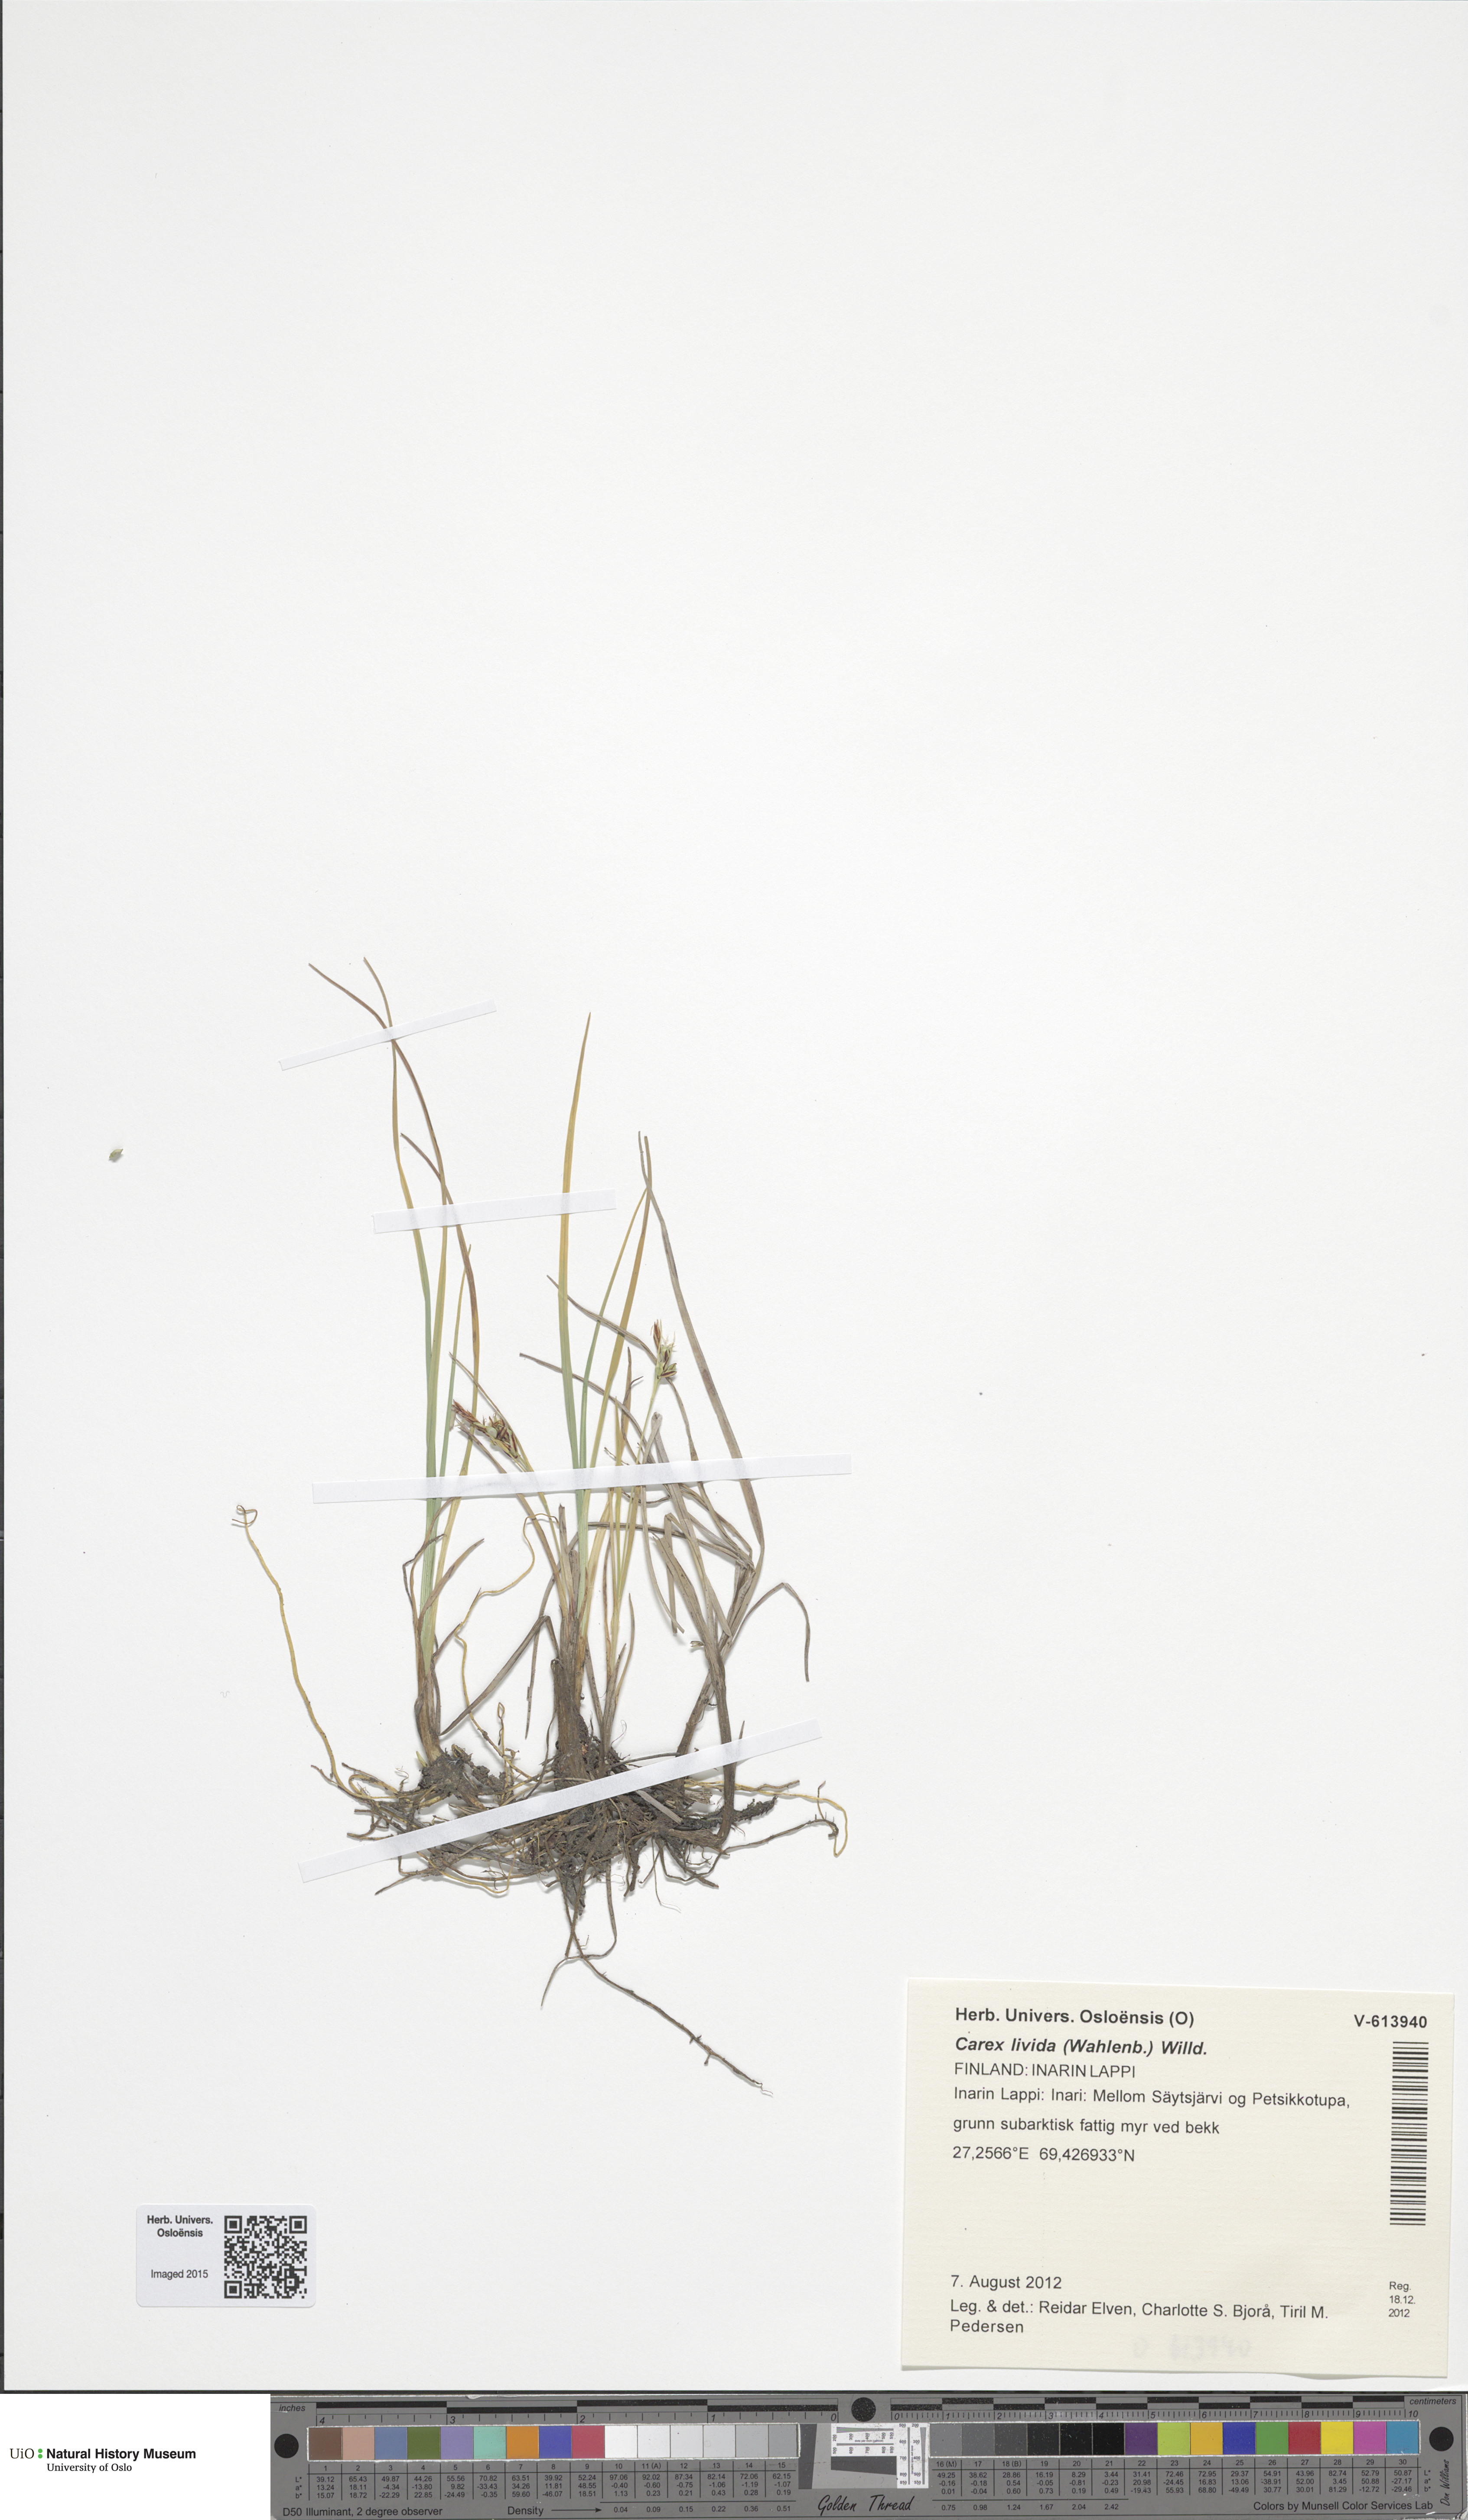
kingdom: Plantae
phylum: Tracheophyta
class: Liliopsida
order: Poales
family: Cyperaceae
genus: Carex
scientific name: Carex livida
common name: Livid sedge
